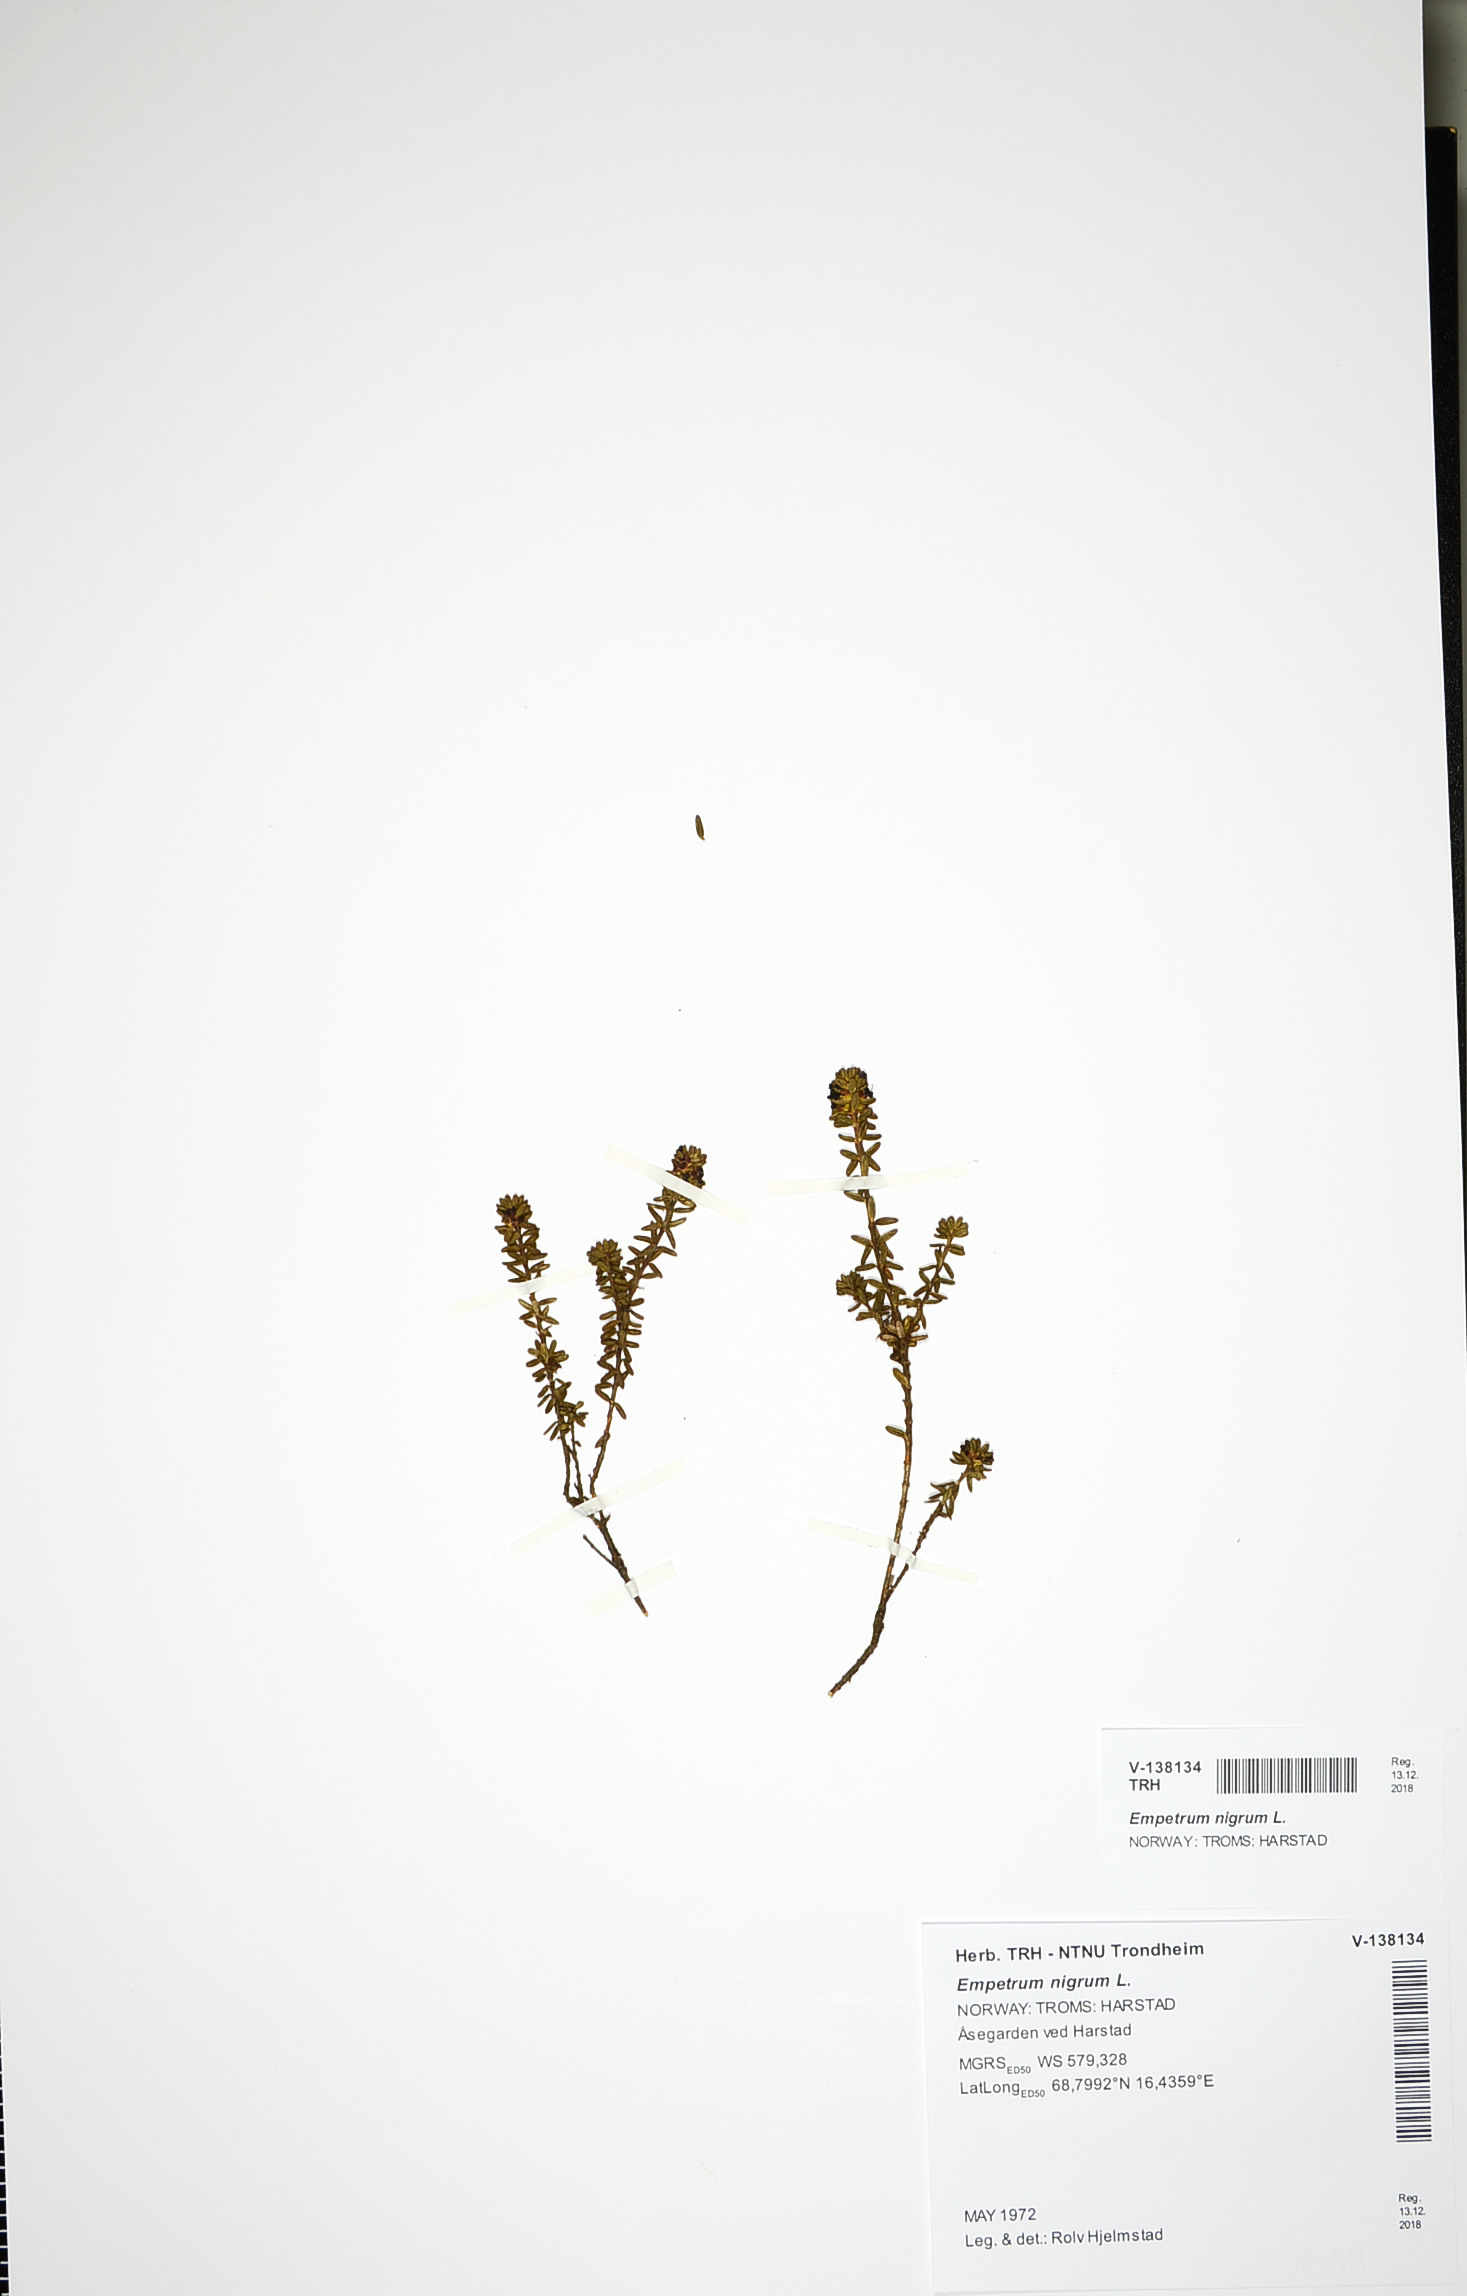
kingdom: Plantae
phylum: Tracheophyta
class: Magnoliopsida
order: Ericales
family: Ericaceae
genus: Empetrum
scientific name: Empetrum nigrum
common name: Black crowberry
